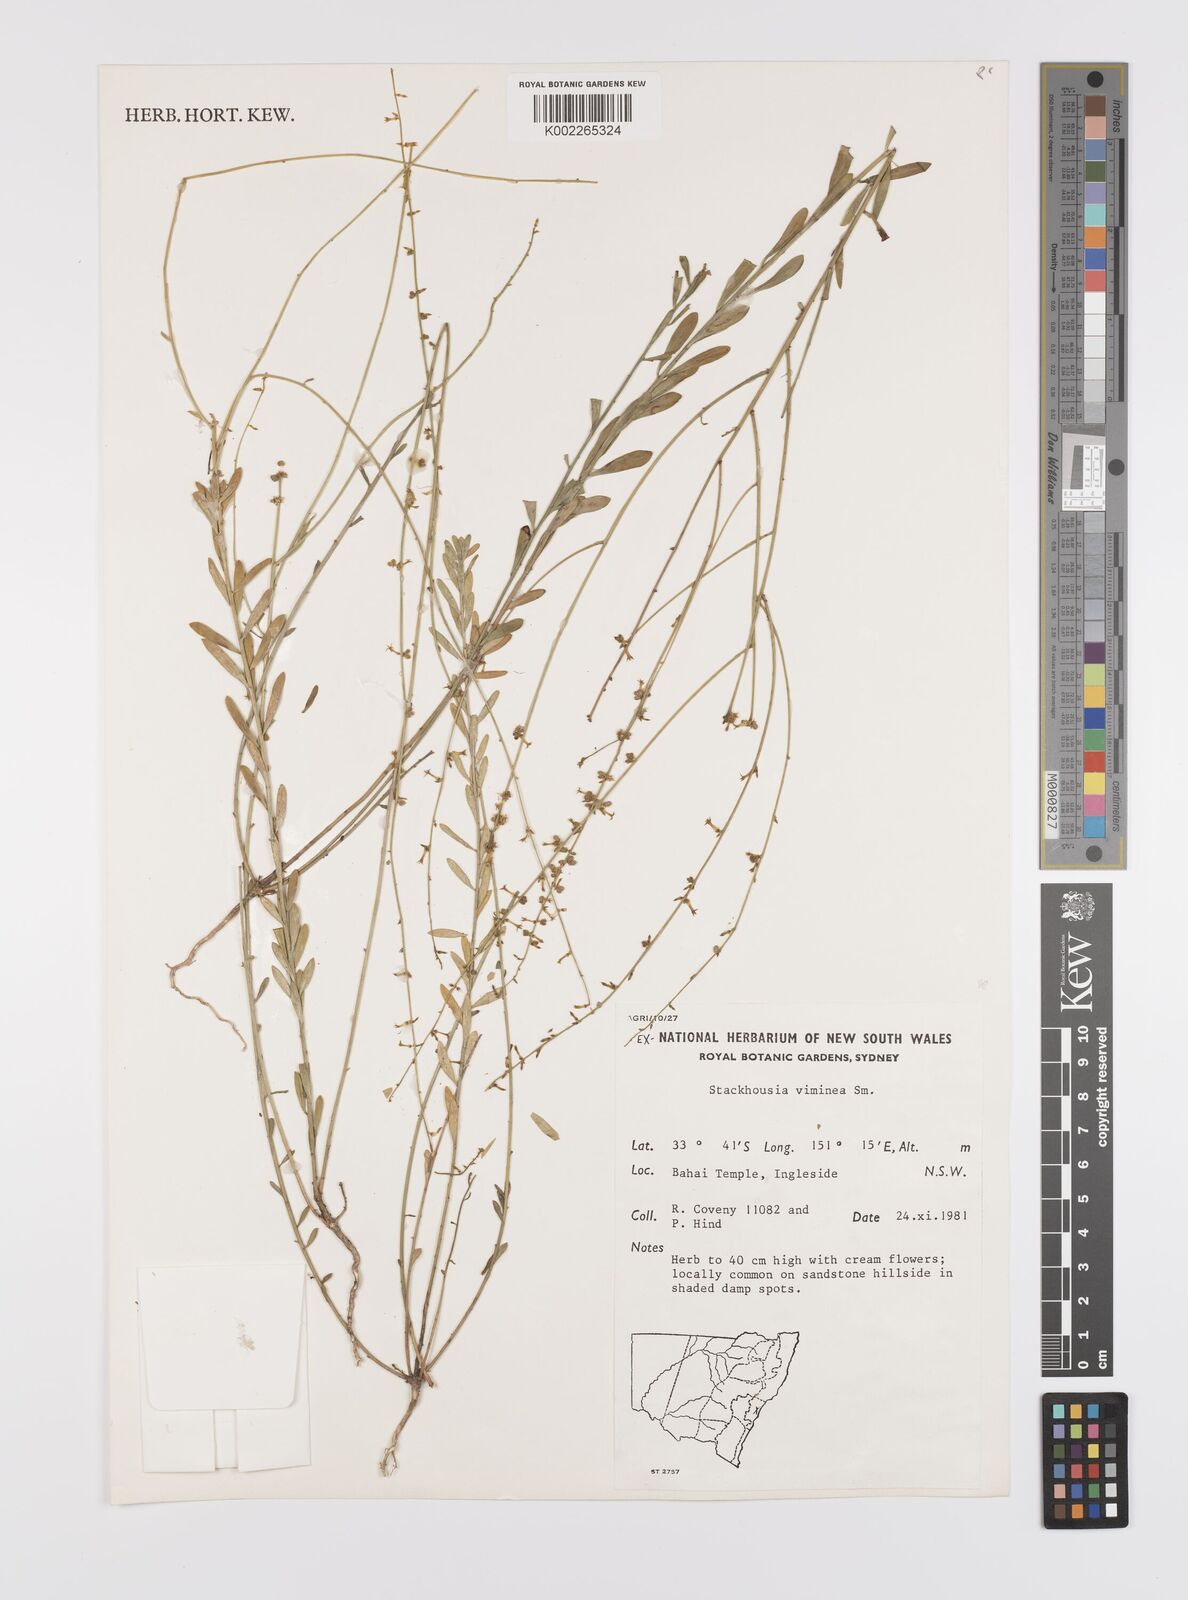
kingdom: Plantae
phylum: Tracheophyta
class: Magnoliopsida
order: Celastrales
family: Celastraceae
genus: Stackhousia
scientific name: Stackhousia viminea
